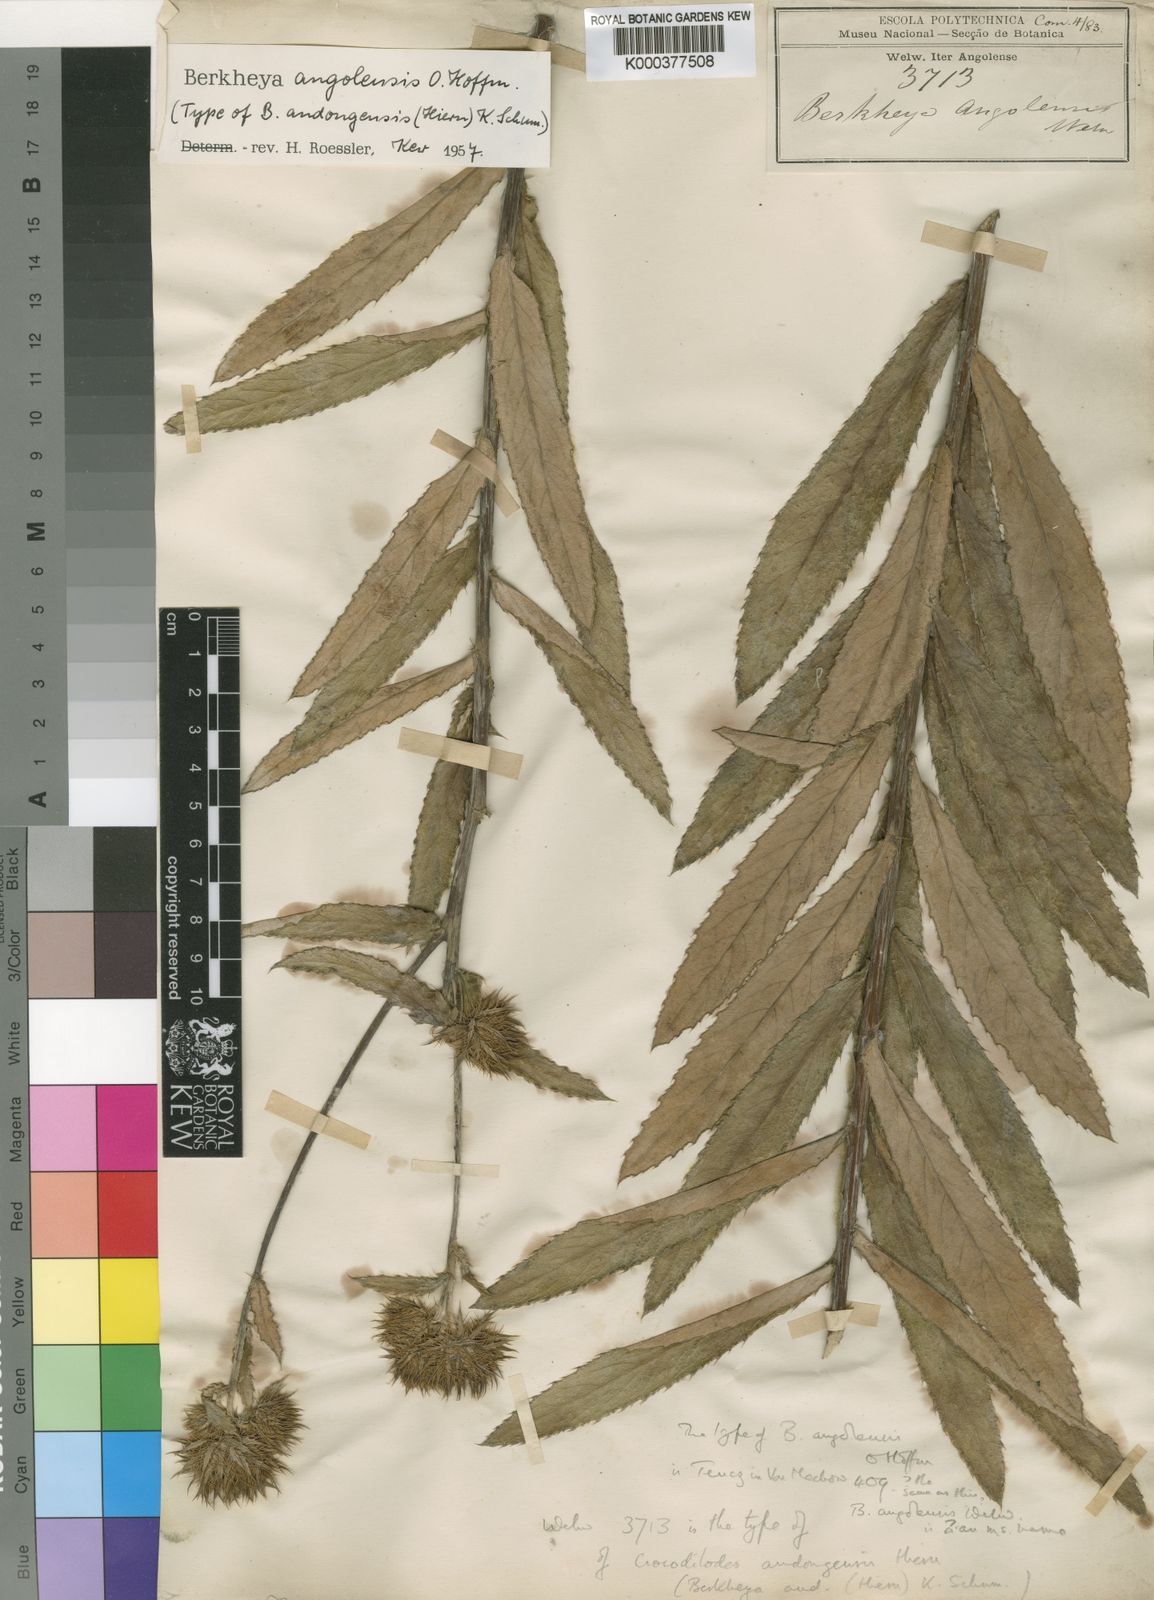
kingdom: Plantae
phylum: Tracheophyta
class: Magnoliopsida
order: Asterales
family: Asteraceae
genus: Berkheya
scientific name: Berkheya angolensis
